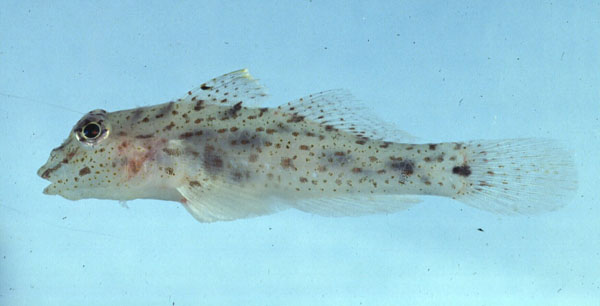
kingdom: Animalia
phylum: Chordata
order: Perciformes
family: Gobiidae
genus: Fusigobius
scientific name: Fusigobius neophytus
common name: Sand goby
